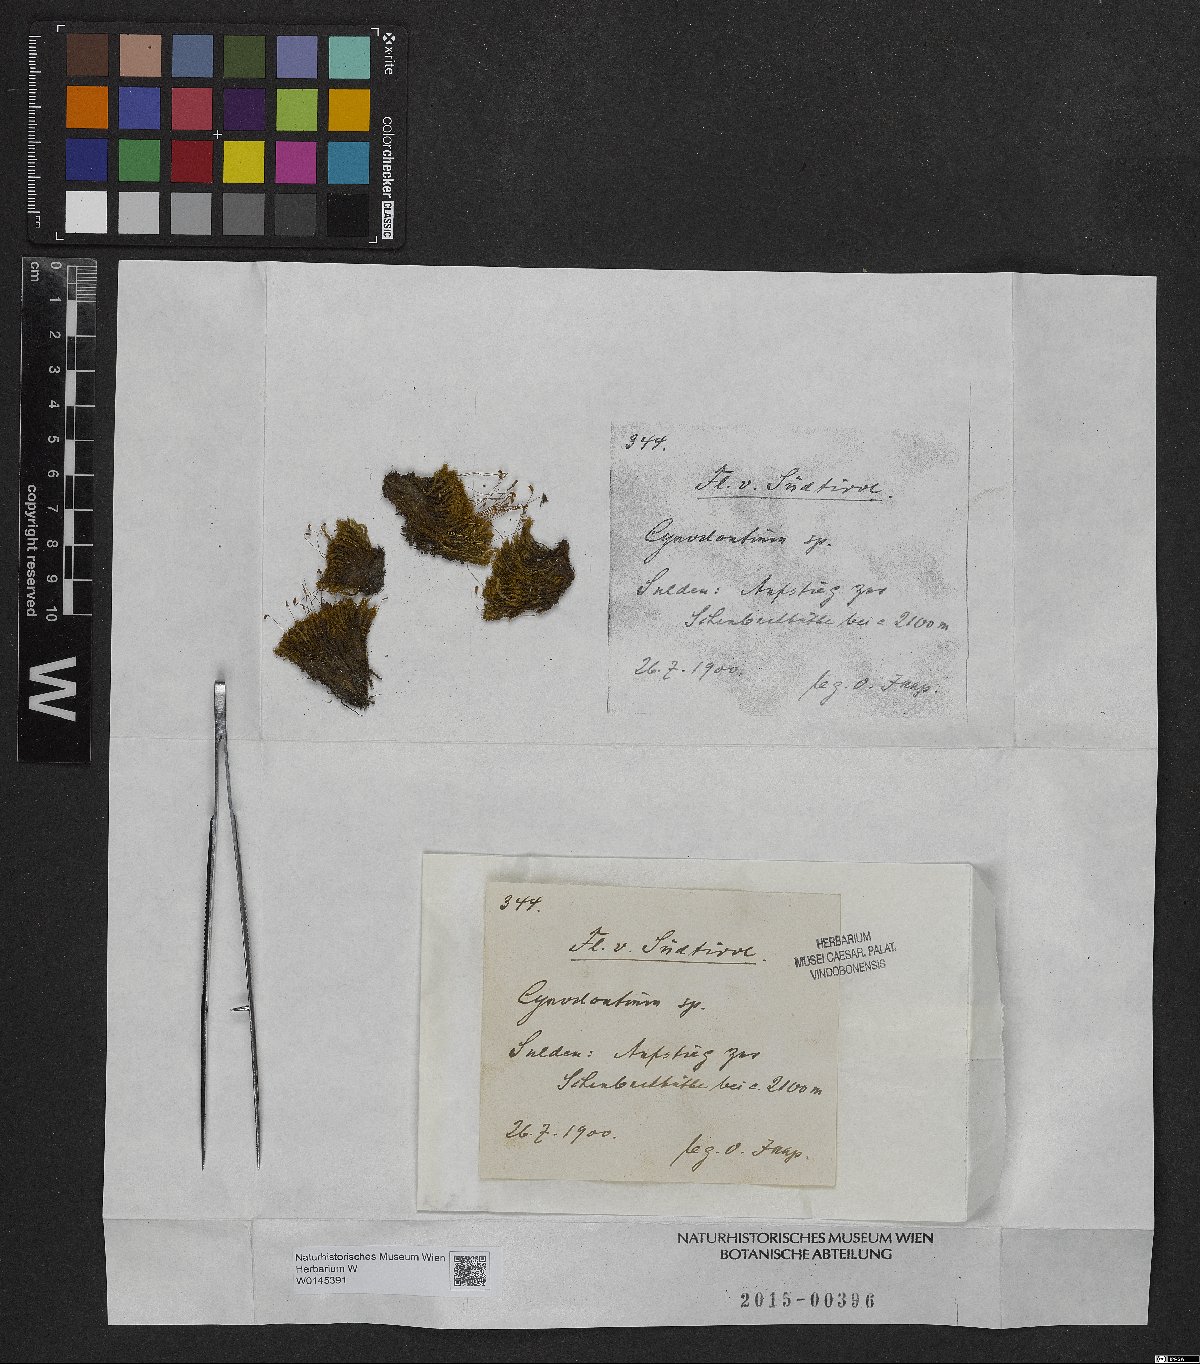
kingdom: Plantae
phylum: Bryophyta
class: Bryopsida
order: Dicranales
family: Rhabdoweisiaceae
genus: Cynodontium
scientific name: Cynodontium
